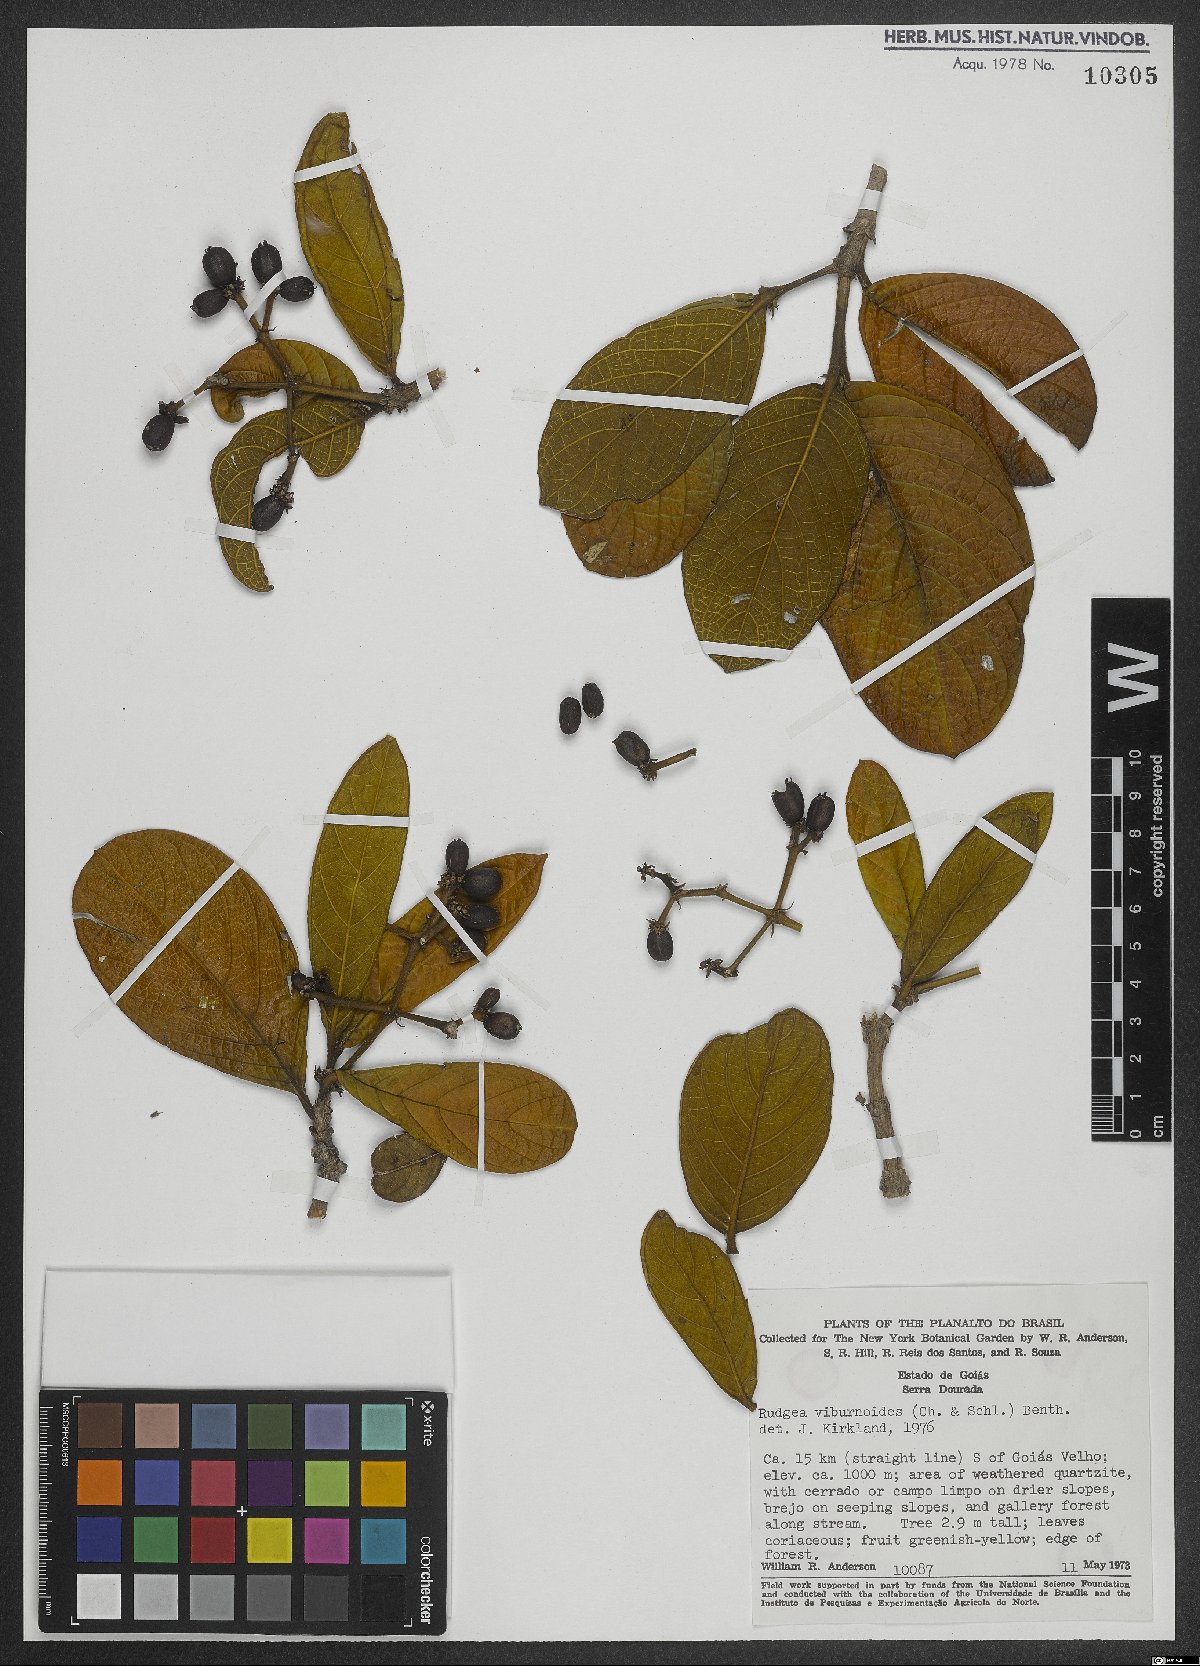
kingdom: Plantae
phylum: Tracheophyta
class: Magnoliopsida
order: Gentianales
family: Rubiaceae
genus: Rudgea
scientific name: Rudgea viburnoides
